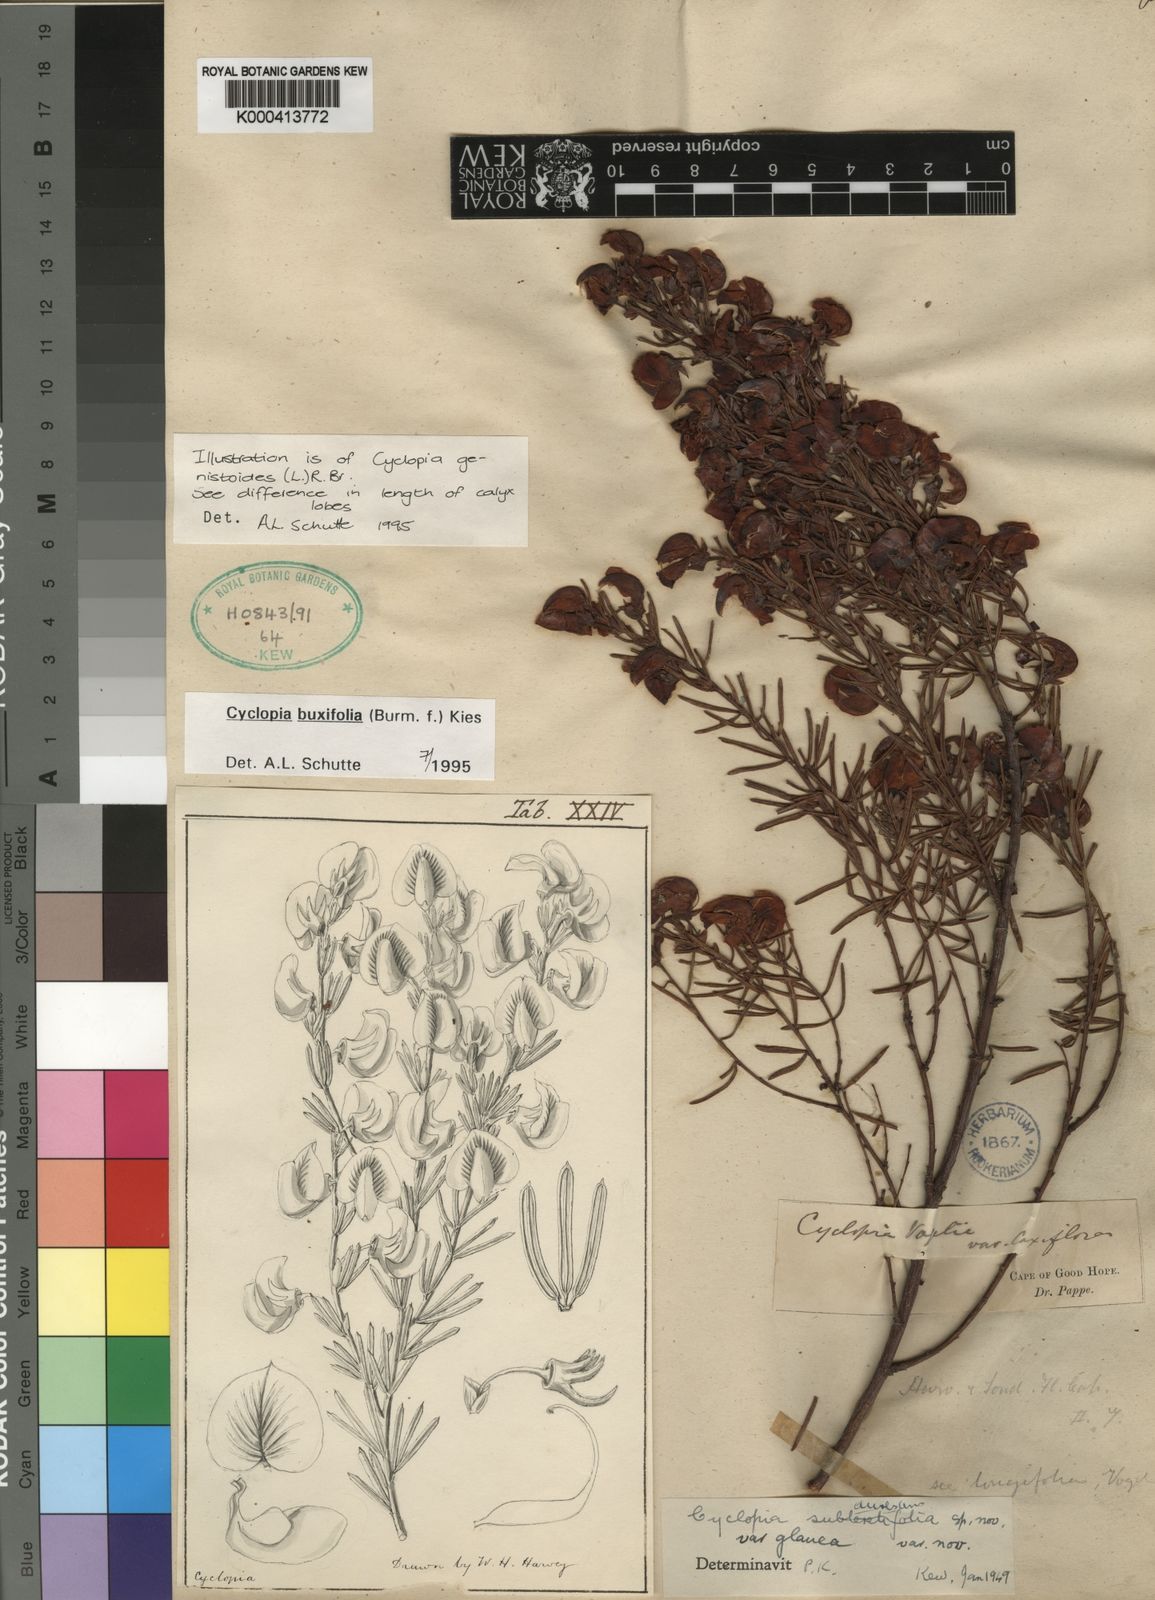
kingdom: Plantae
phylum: Tracheophyta
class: Magnoliopsida
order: Fabales
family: Fabaceae
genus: Cyclopia
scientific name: Cyclopia buxifolia
